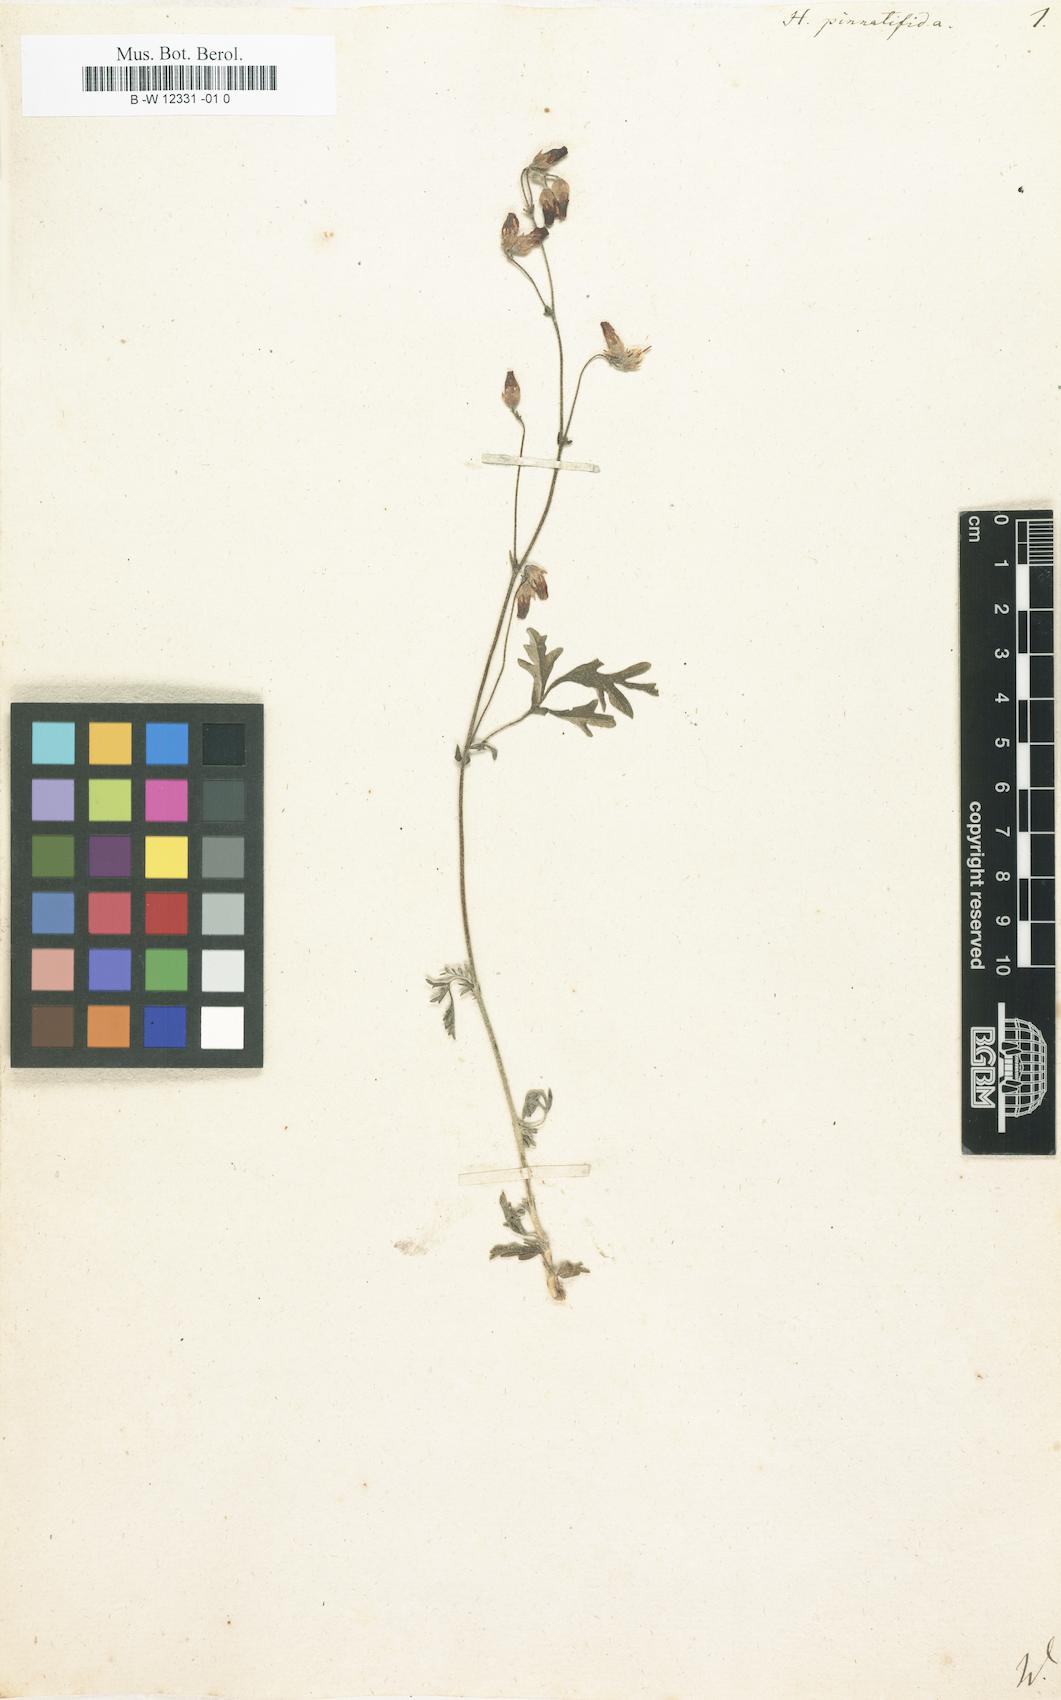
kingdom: Plantae
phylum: Tracheophyta
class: Magnoliopsida
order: Malvales
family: Malvaceae
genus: Hermannia
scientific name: Hermannia
